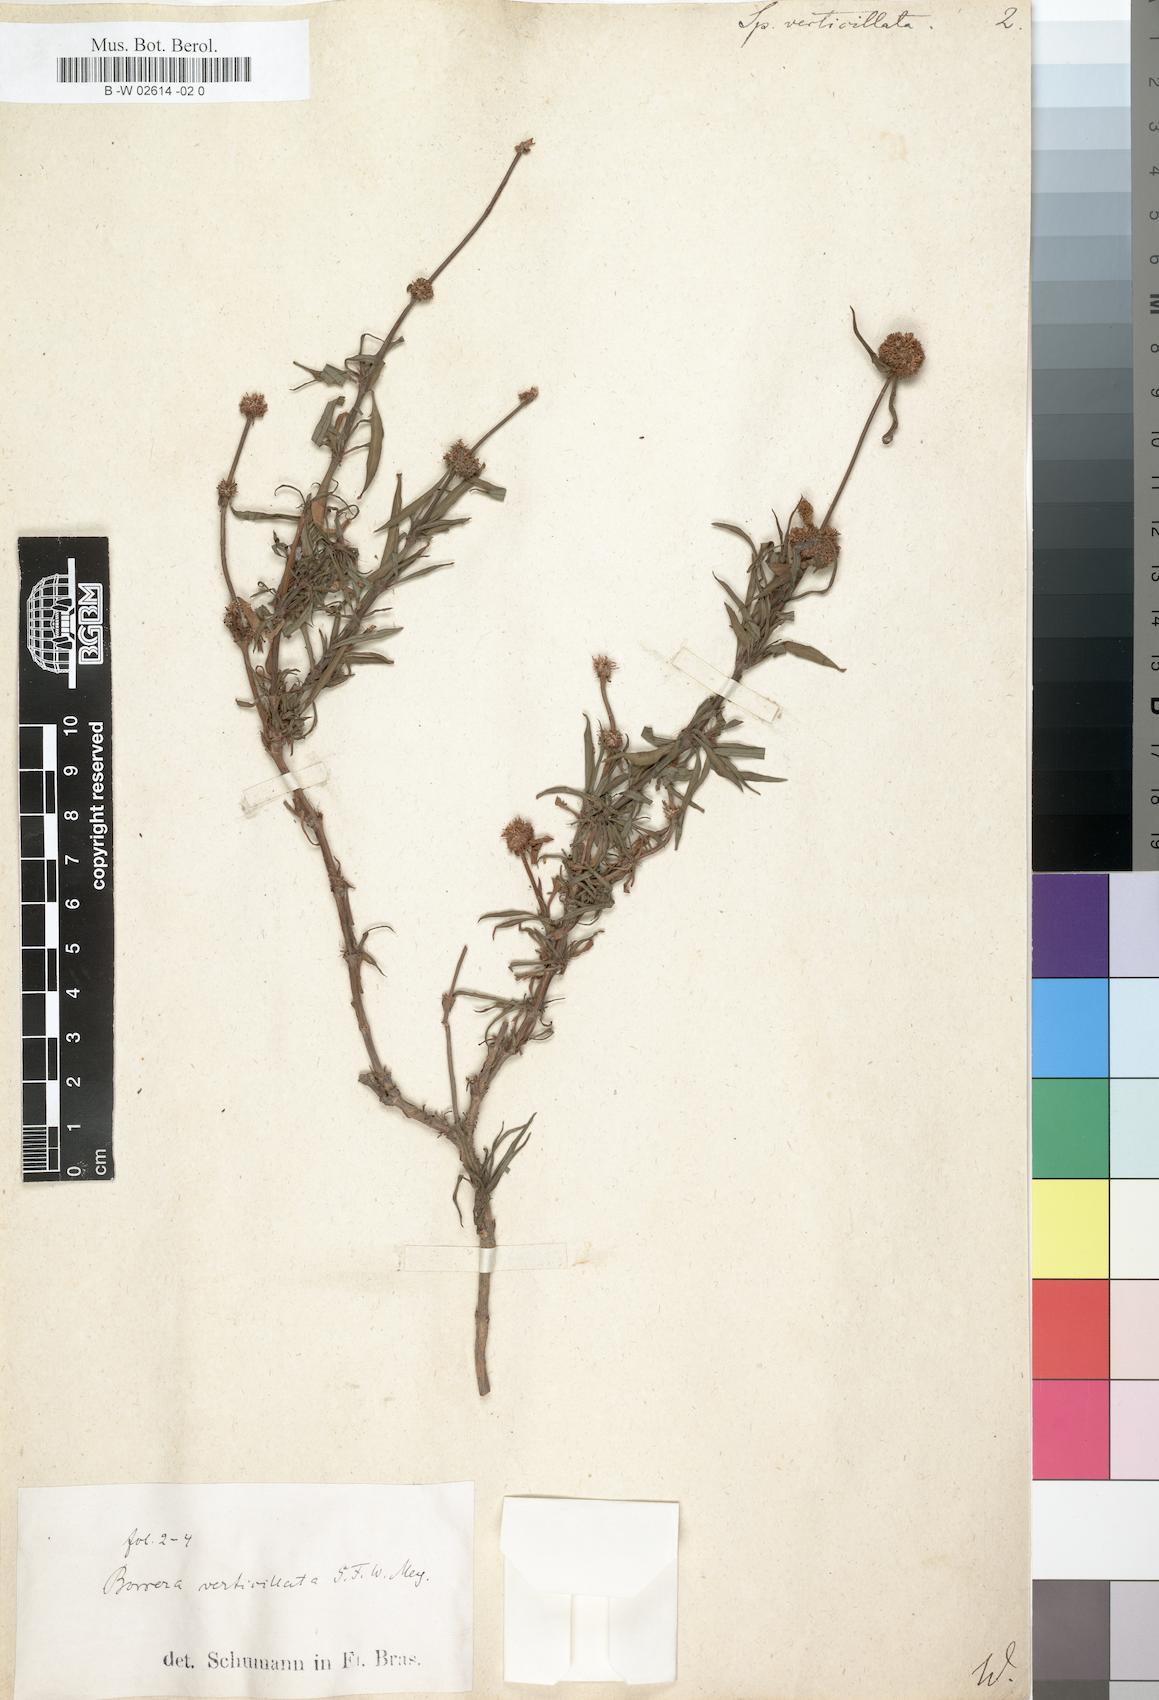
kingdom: Plantae
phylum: Tracheophyta
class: Magnoliopsida
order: Gentianales
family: Rubiaceae
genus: Spermacoce
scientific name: Spermacoce verticillata
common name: Shrubby false buttonweed
